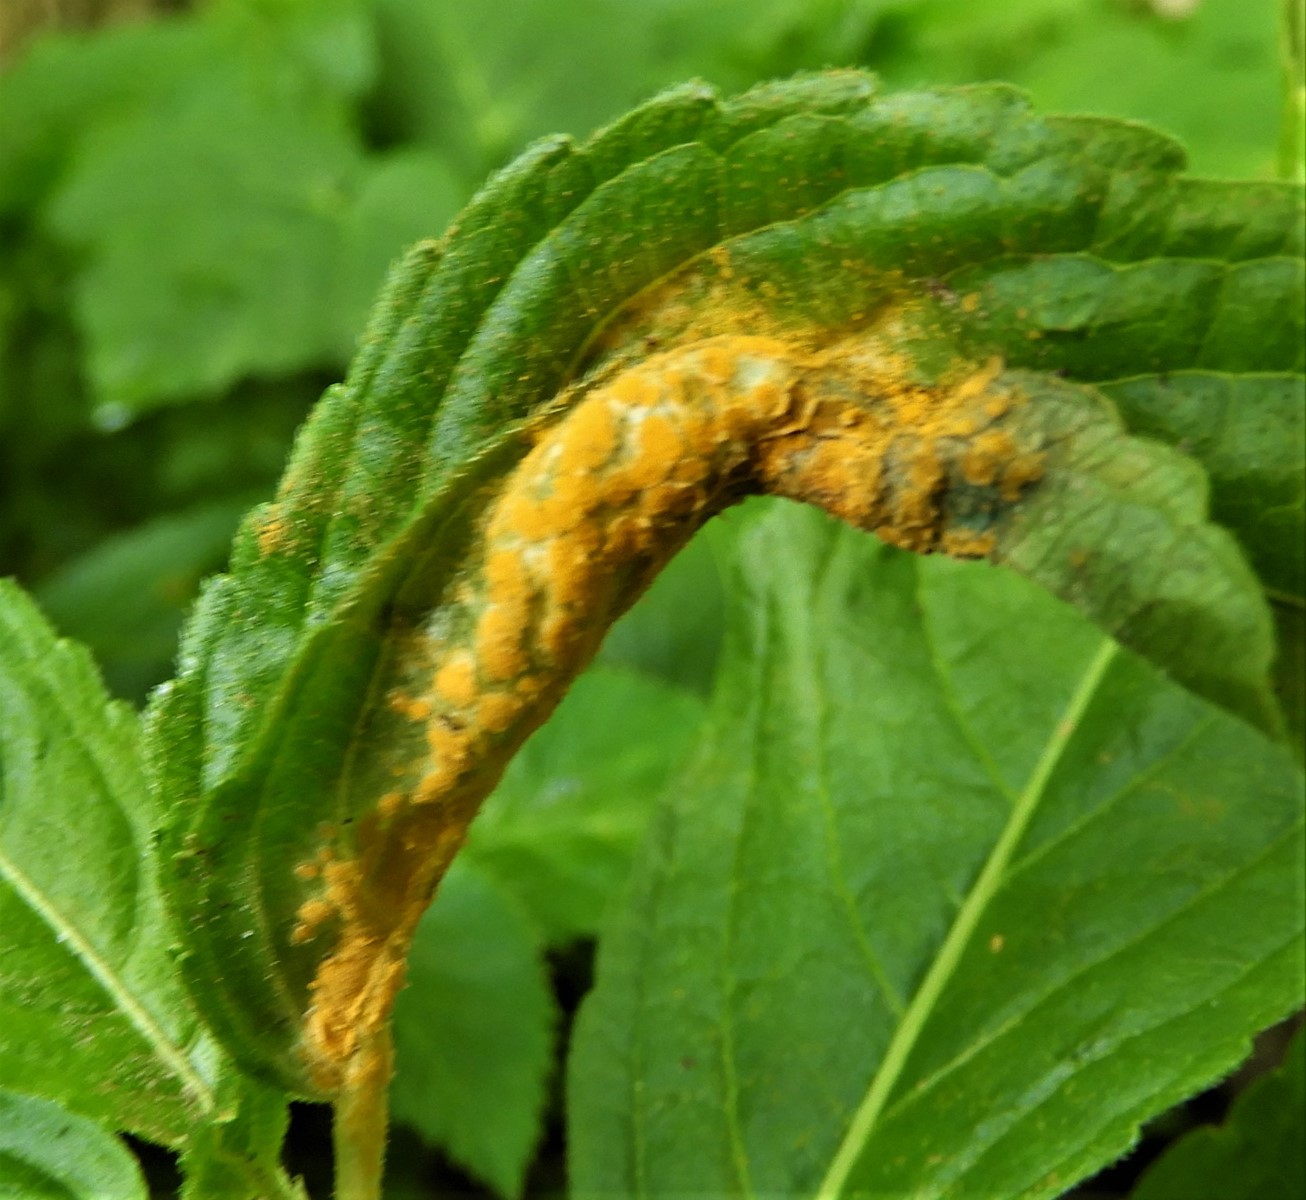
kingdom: Fungi
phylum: Basidiomycota
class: Pucciniomycetes
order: Pucciniales
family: Melampsoraceae
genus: Melampsora
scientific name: Melampsora populnea
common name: poppel-skorperust
